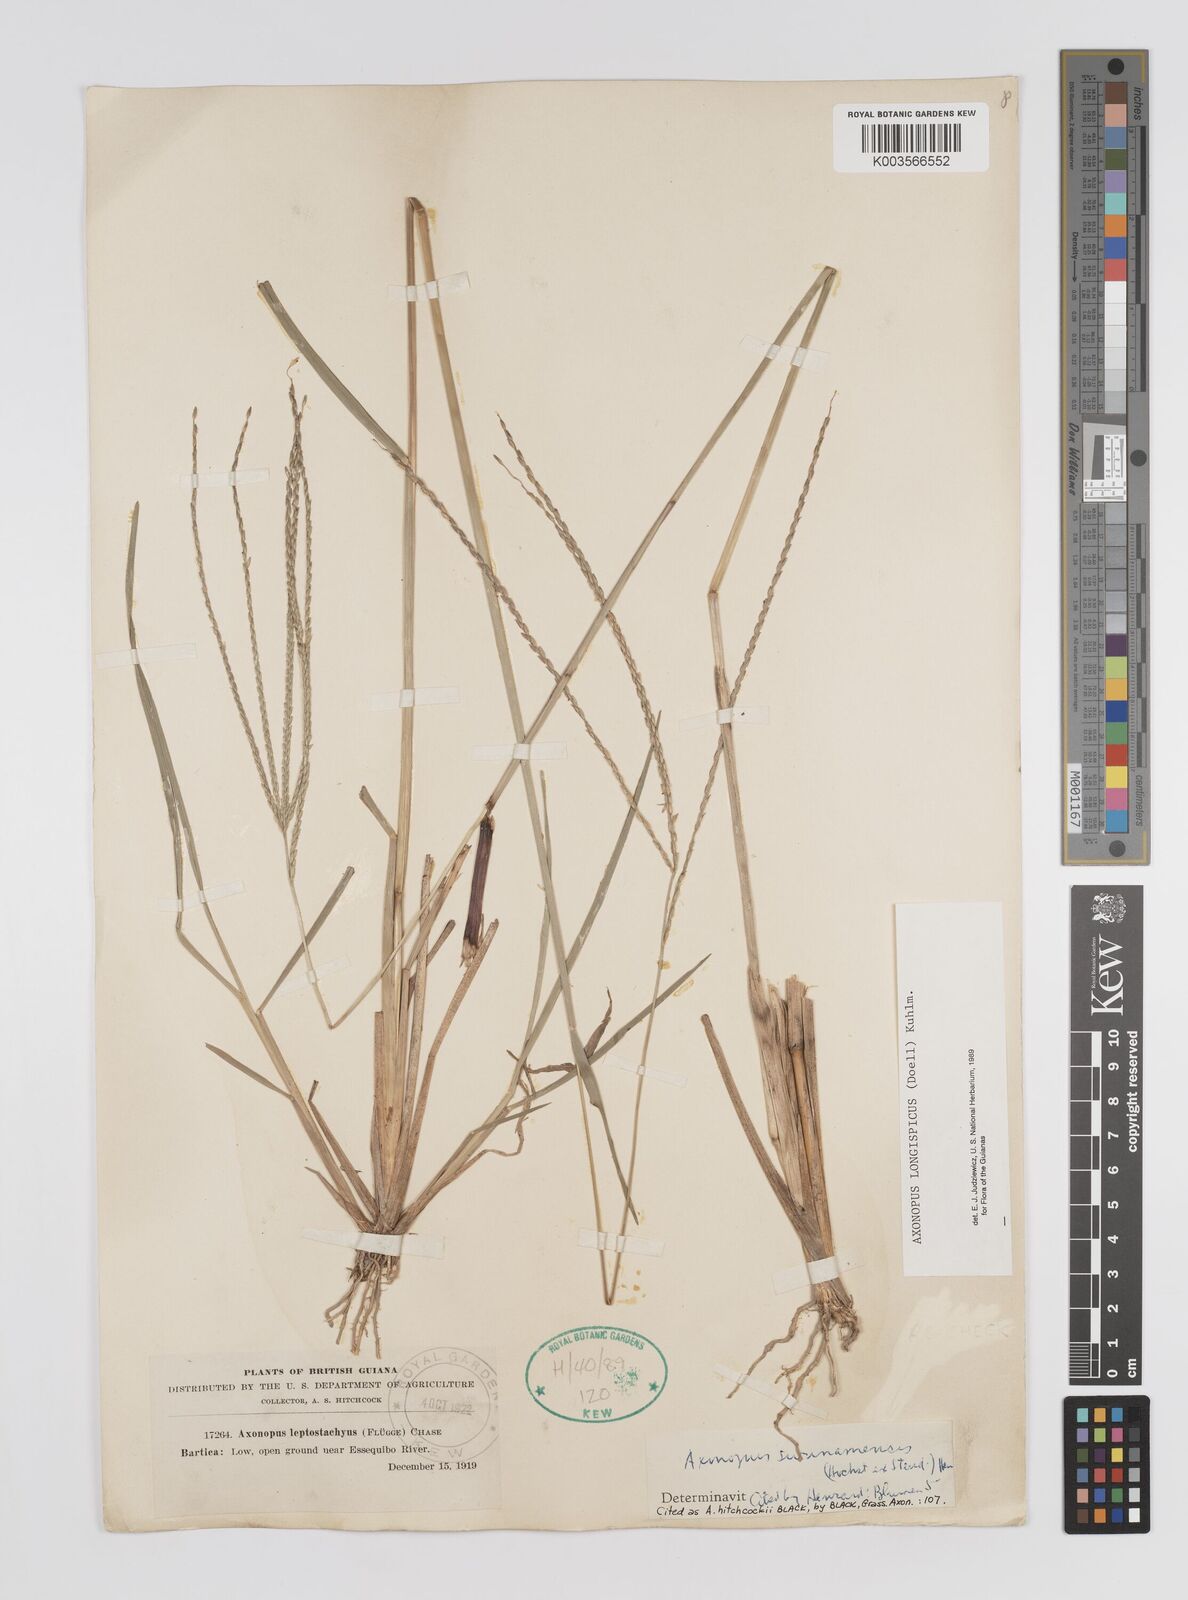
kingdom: Plantae
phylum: Tracheophyta
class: Liliopsida
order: Poales
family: Poaceae
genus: Axonopus
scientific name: Axonopus longispicus
